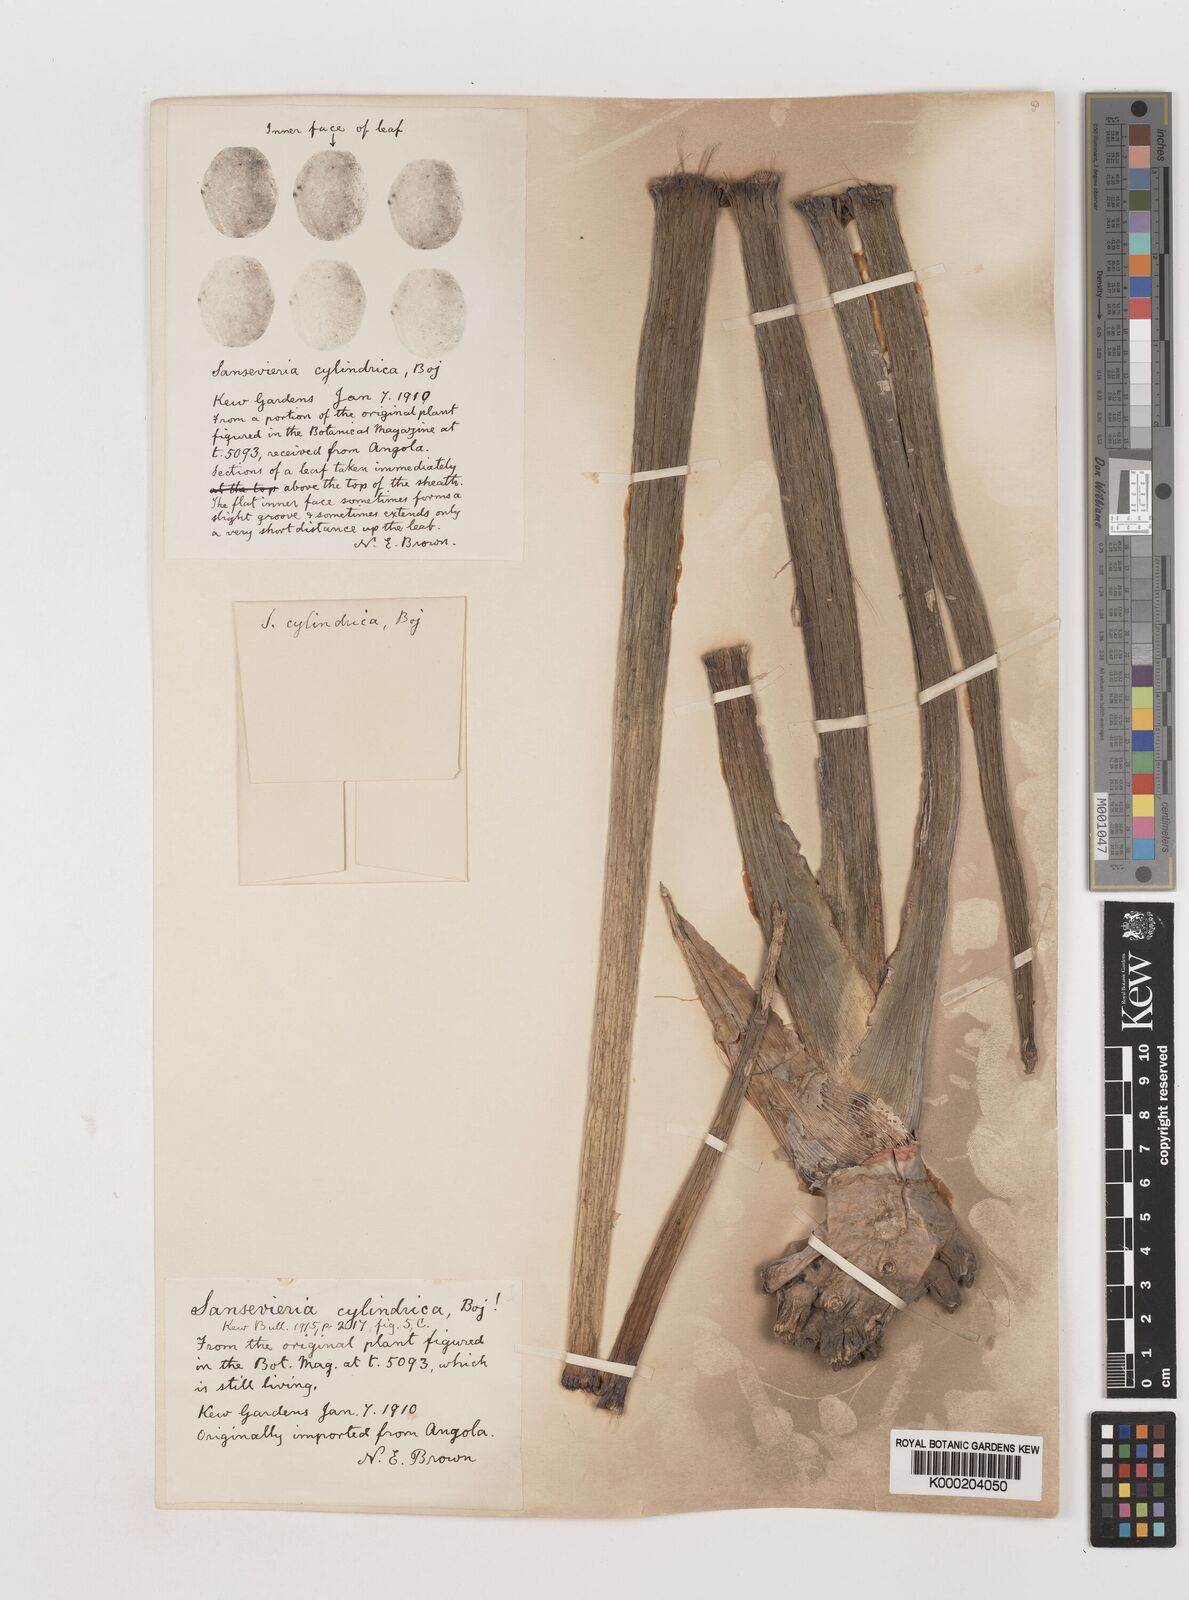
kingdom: Plantae
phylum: Tracheophyta
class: Liliopsida
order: Asparagales
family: Asparagaceae
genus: Dracaena
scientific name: Dracaena angolensis
